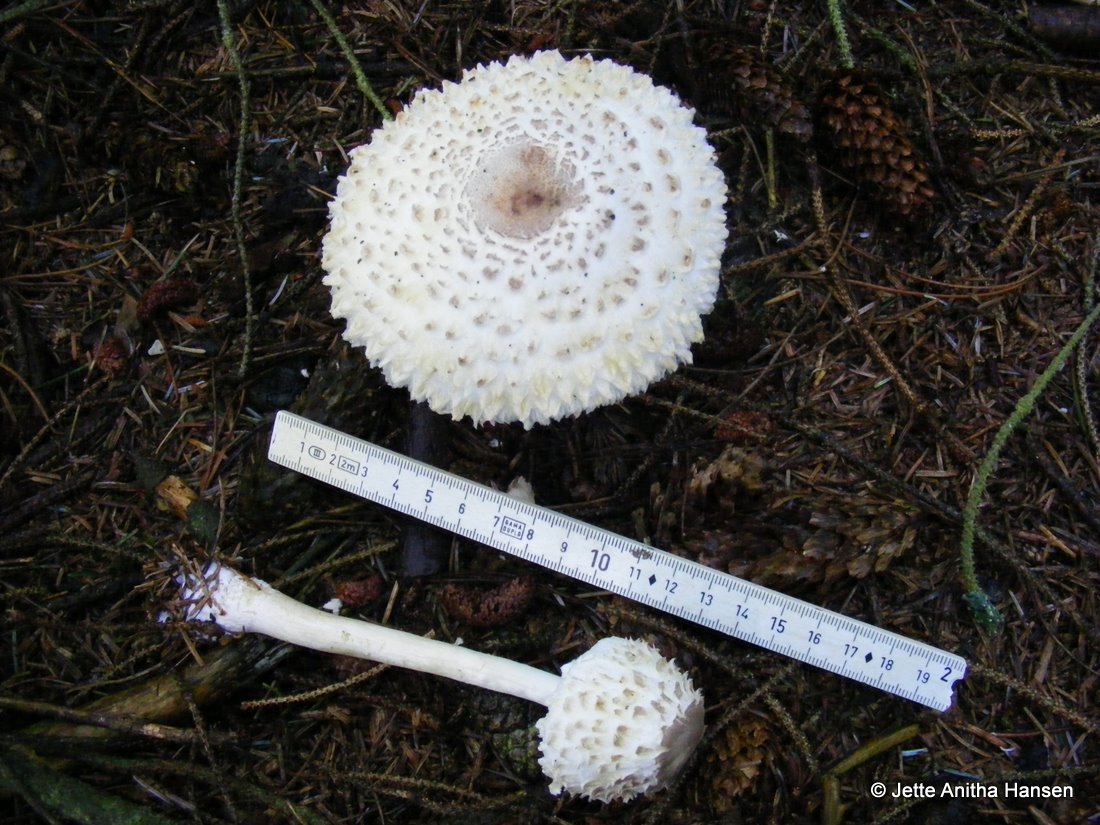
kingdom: Fungi
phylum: Basidiomycota
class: Agaricomycetes
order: Agaricales
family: Agaricaceae
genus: Leucoagaricus
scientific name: Leucoagaricus nympharum
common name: gran-silkehat
